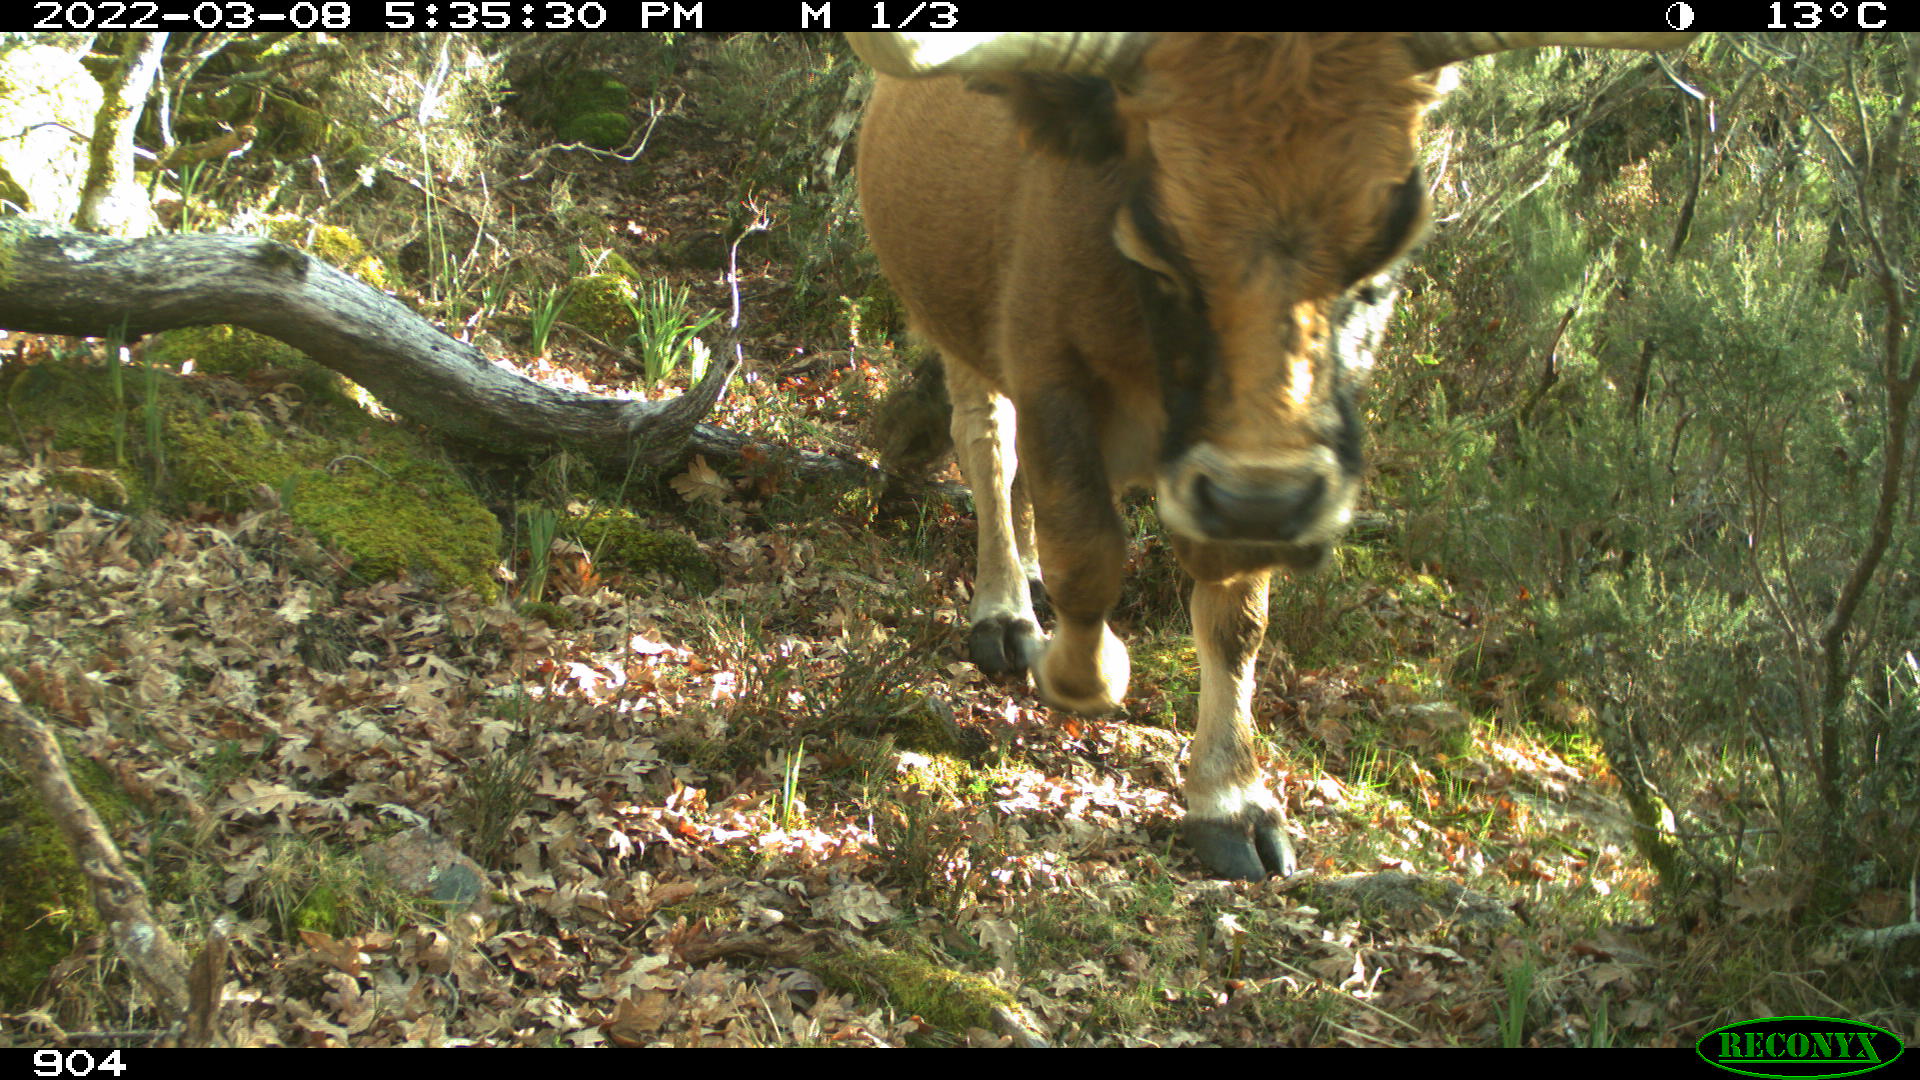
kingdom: Animalia
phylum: Chordata
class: Mammalia
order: Artiodactyla
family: Bovidae
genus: Bos
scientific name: Bos taurus
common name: Domesticated cattle
